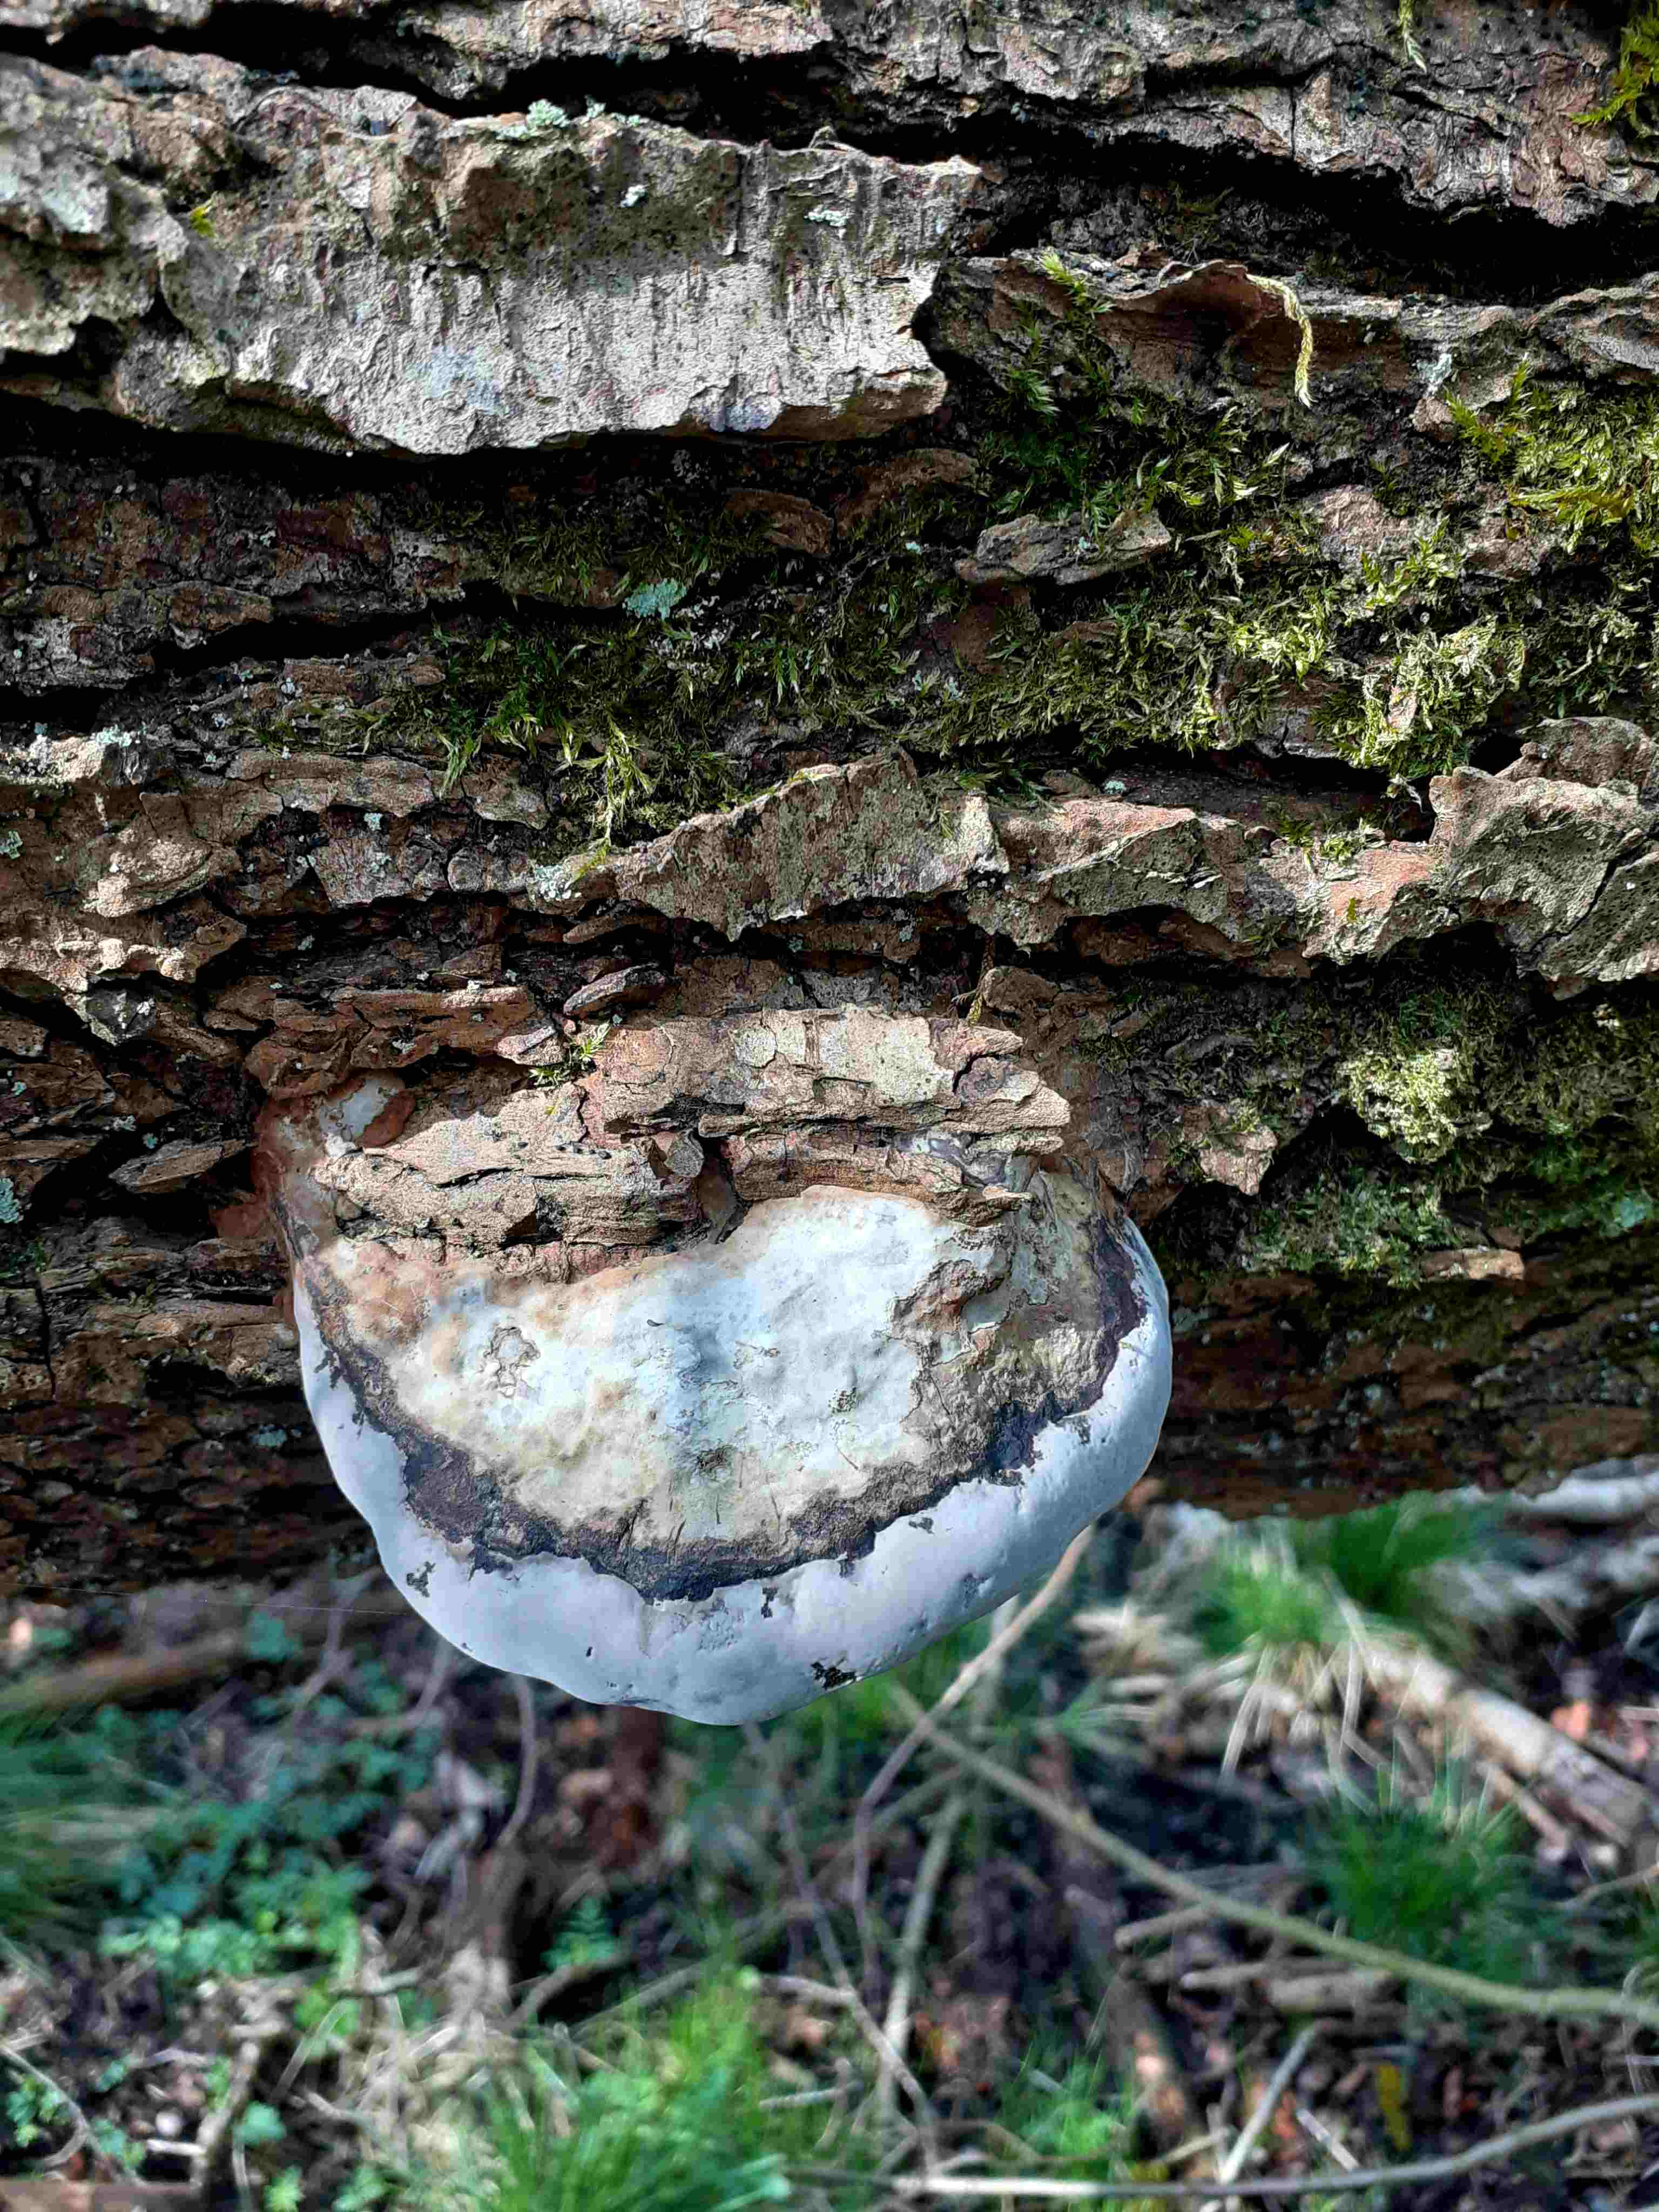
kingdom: Fungi
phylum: Basidiomycota
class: Agaricomycetes
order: Hymenochaetales
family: Hymenochaetaceae
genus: Phellinus
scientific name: Phellinus igniarius
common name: almindelig ildporesvamp
